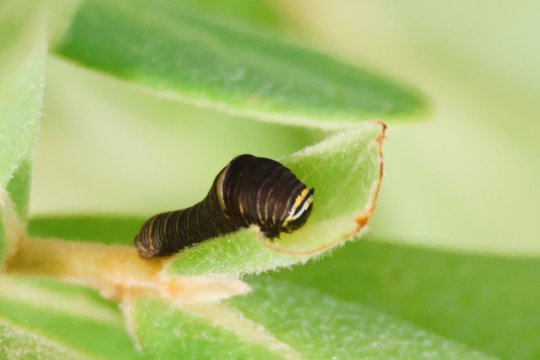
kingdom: Animalia
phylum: Arthropoda
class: Insecta
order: Lepidoptera
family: Papilionidae
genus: Protographium
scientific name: Protographium marcellus
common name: Zebra Swallowtail
